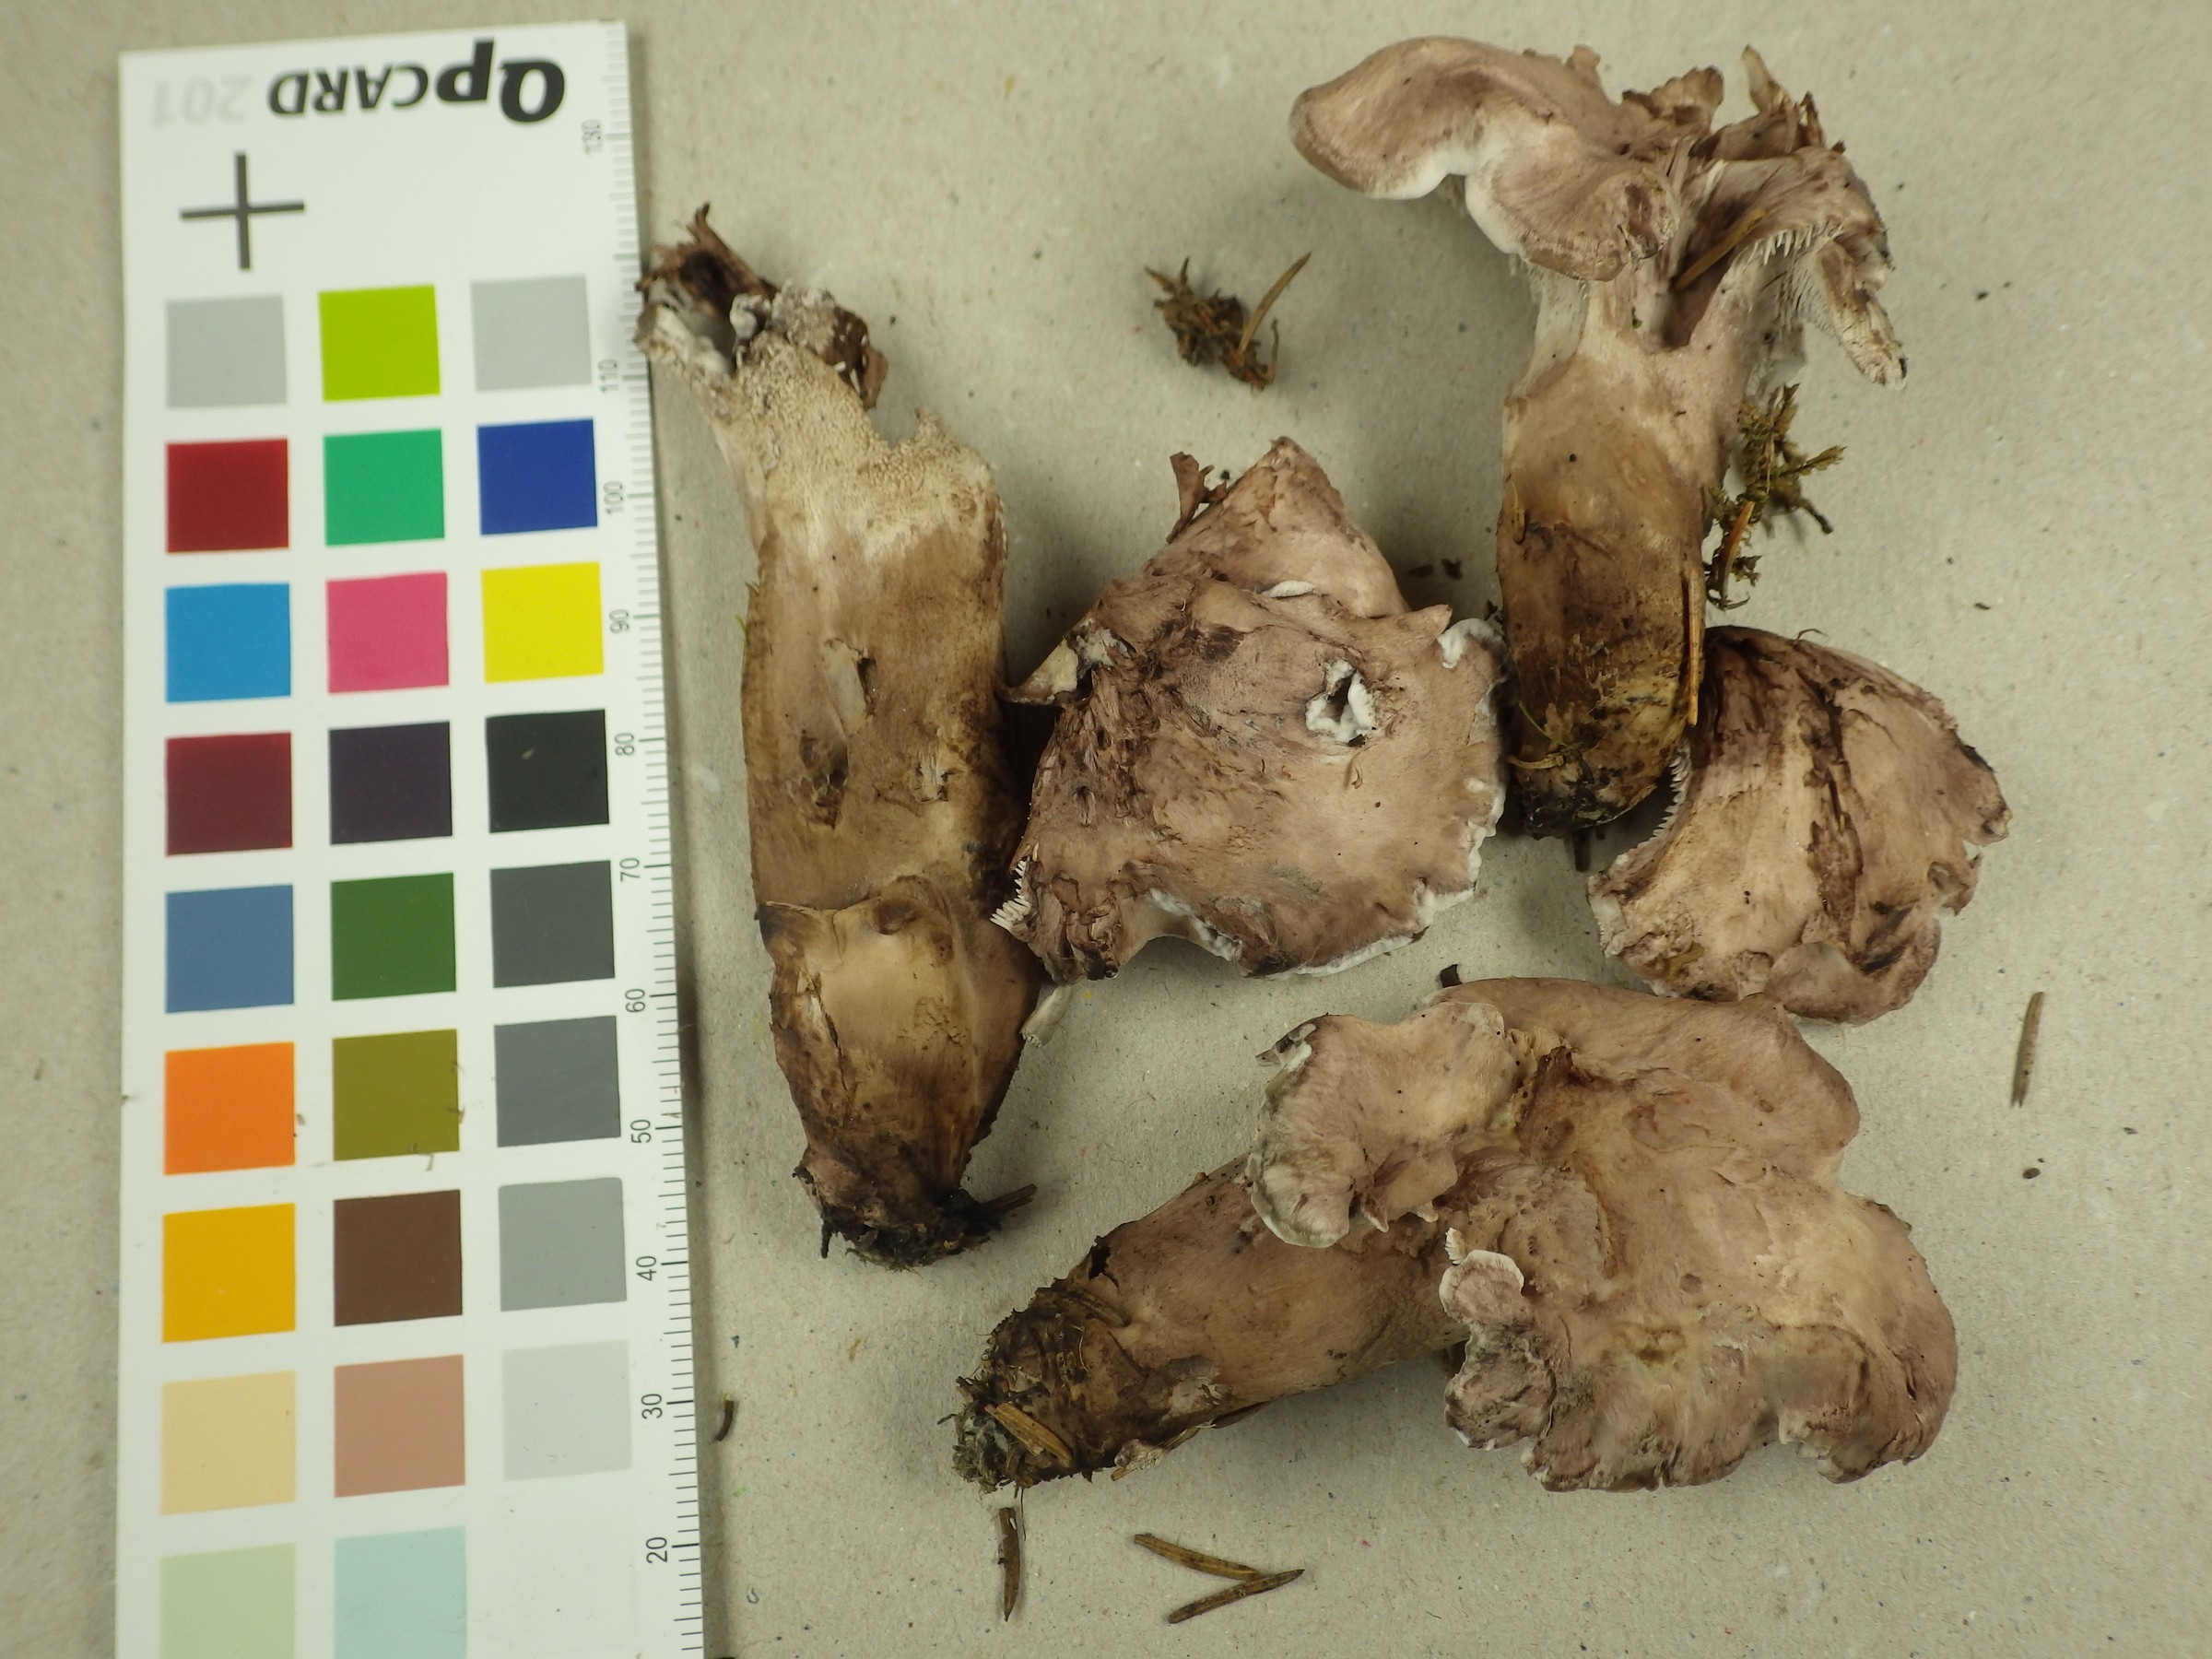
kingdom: Fungi
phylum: Basidiomycota
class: Agaricomycetes
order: Thelephorales
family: Thelephoraceae
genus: Phellodon
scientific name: Phellodon violascens
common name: Spruce tooth
